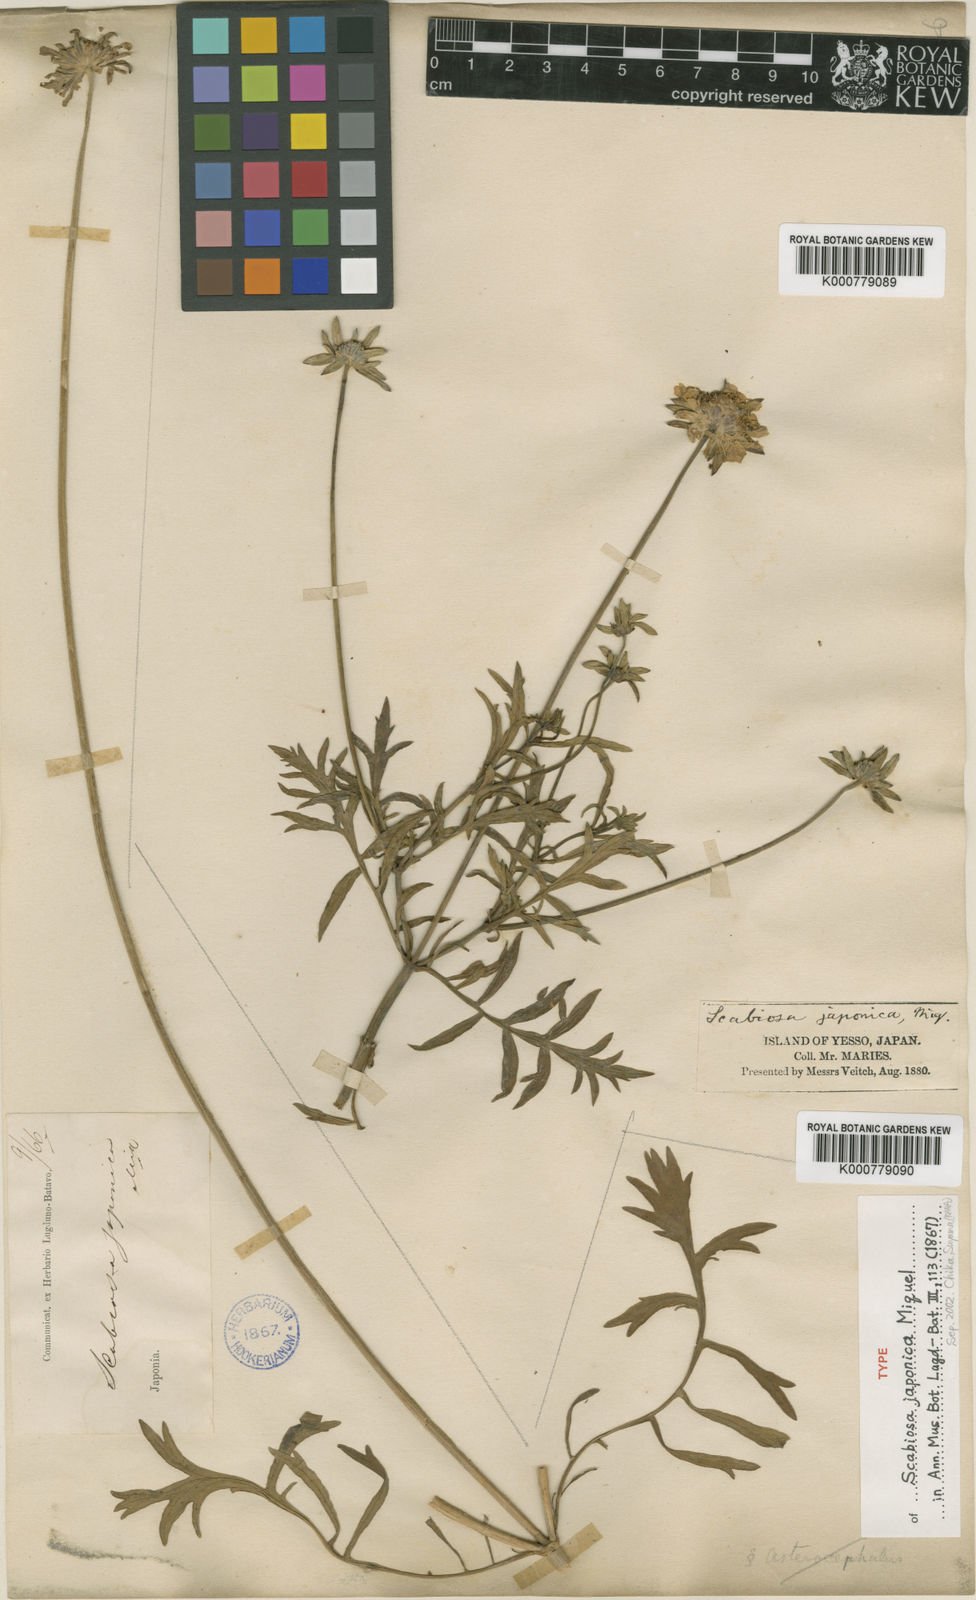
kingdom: Plantae
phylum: Tracheophyta
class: Magnoliopsida
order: Dipsacales
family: Caprifoliaceae
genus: Scabiosa
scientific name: Scabiosa columbaria
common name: Small scabious
